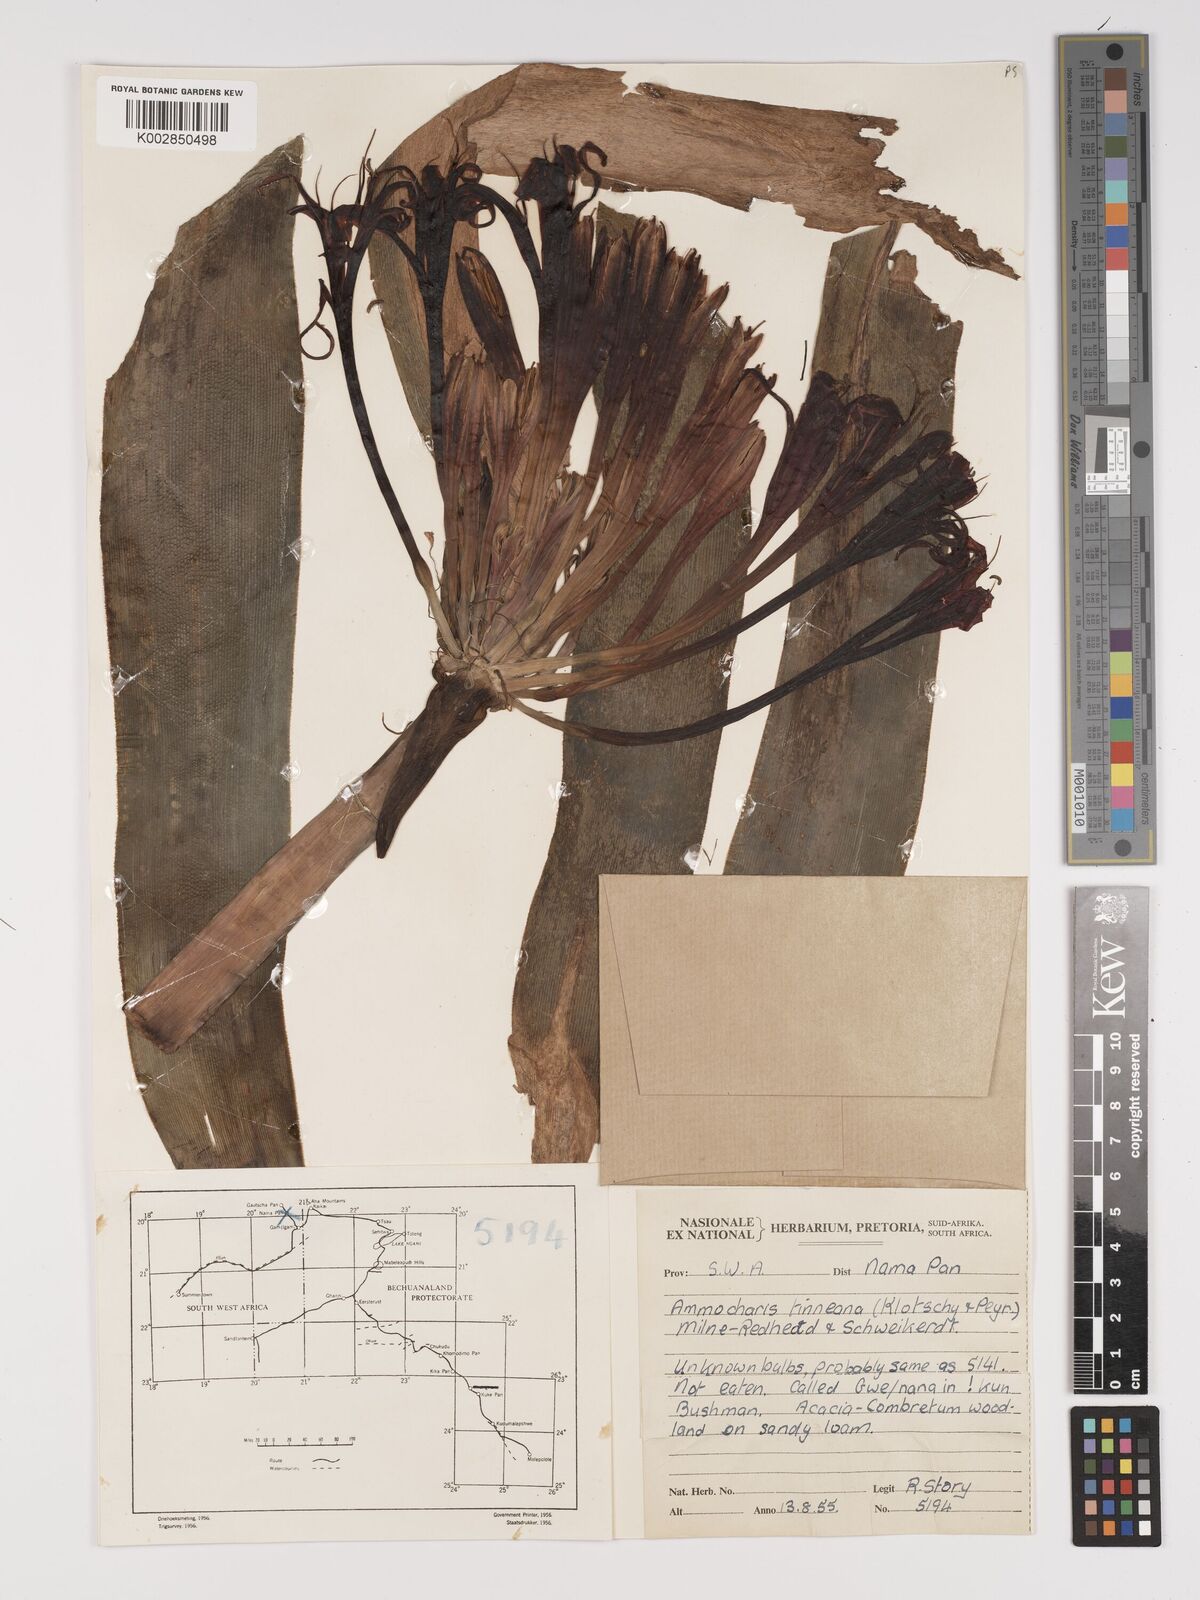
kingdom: Plantae
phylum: Tracheophyta
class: Liliopsida
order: Asparagales
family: Amaryllidaceae
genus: Ammocharis
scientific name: Ammocharis tinneana
